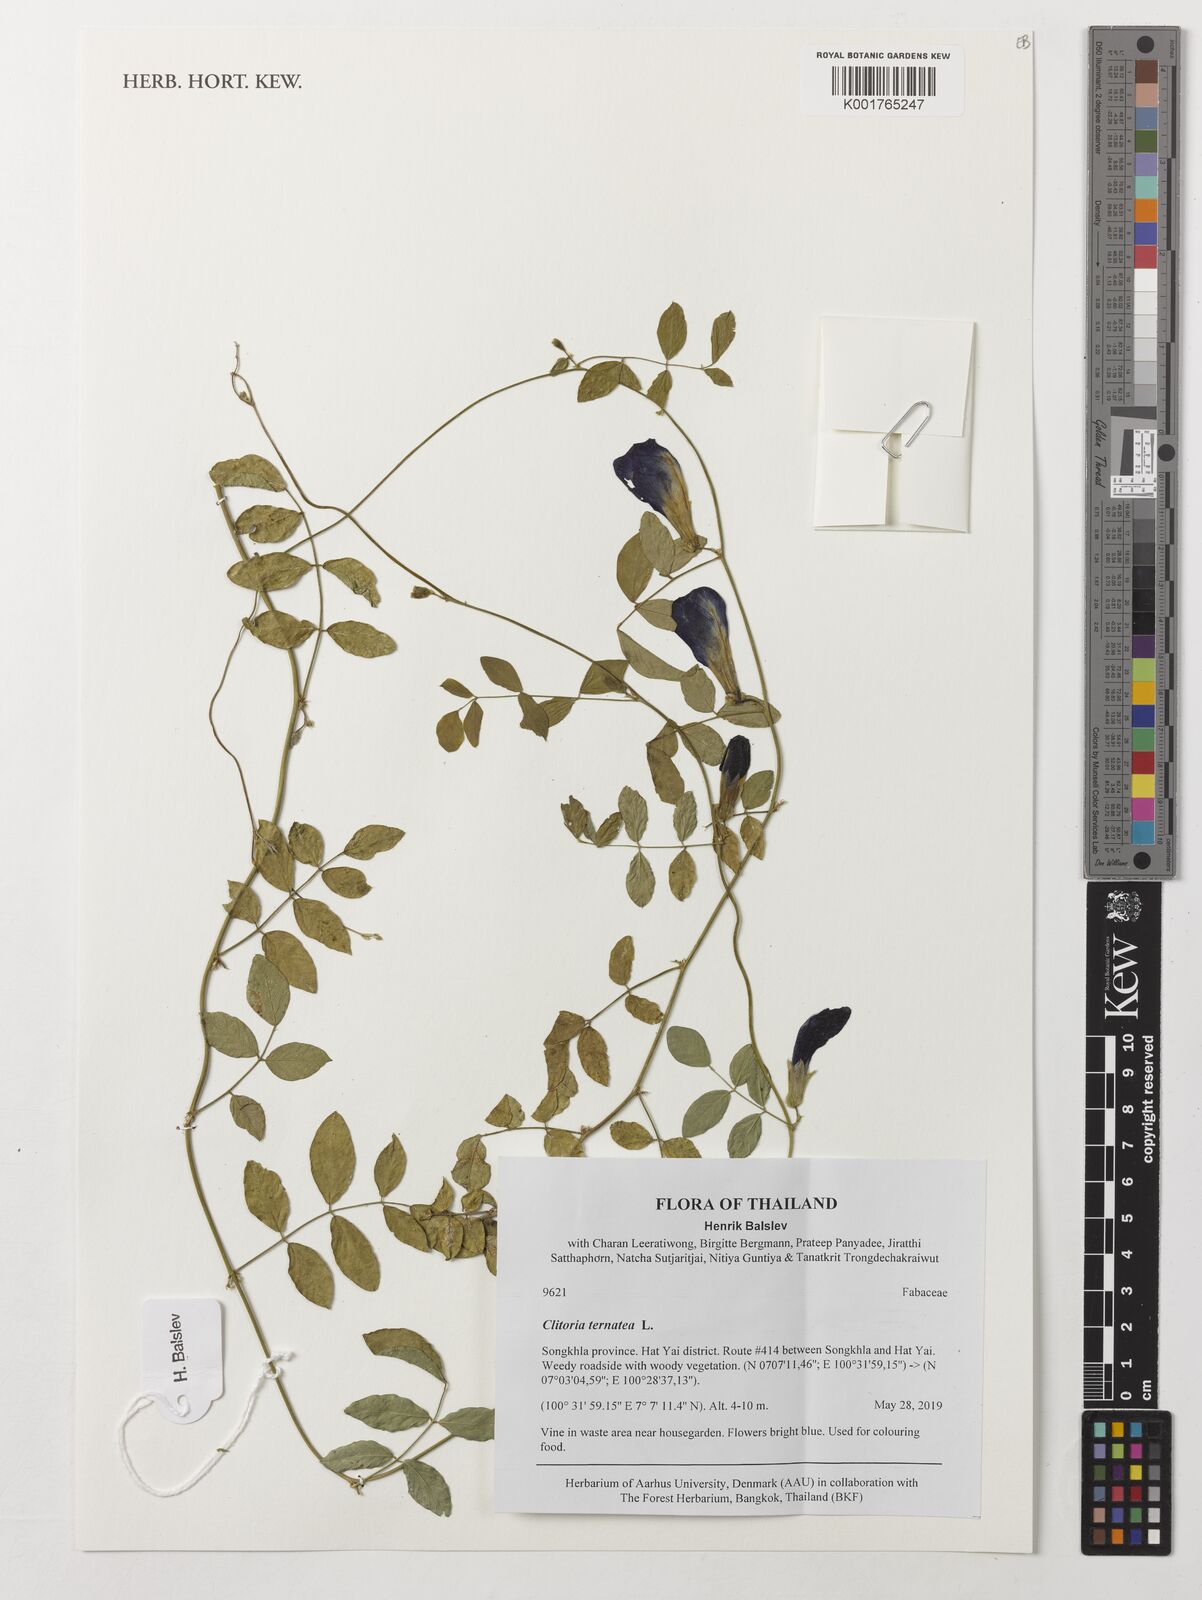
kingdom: Plantae
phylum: Tracheophyta
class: Magnoliopsida
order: Fabales
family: Fabaceae
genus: Clitoria
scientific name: Clitoria ternatea
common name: Asian pigeonwings
